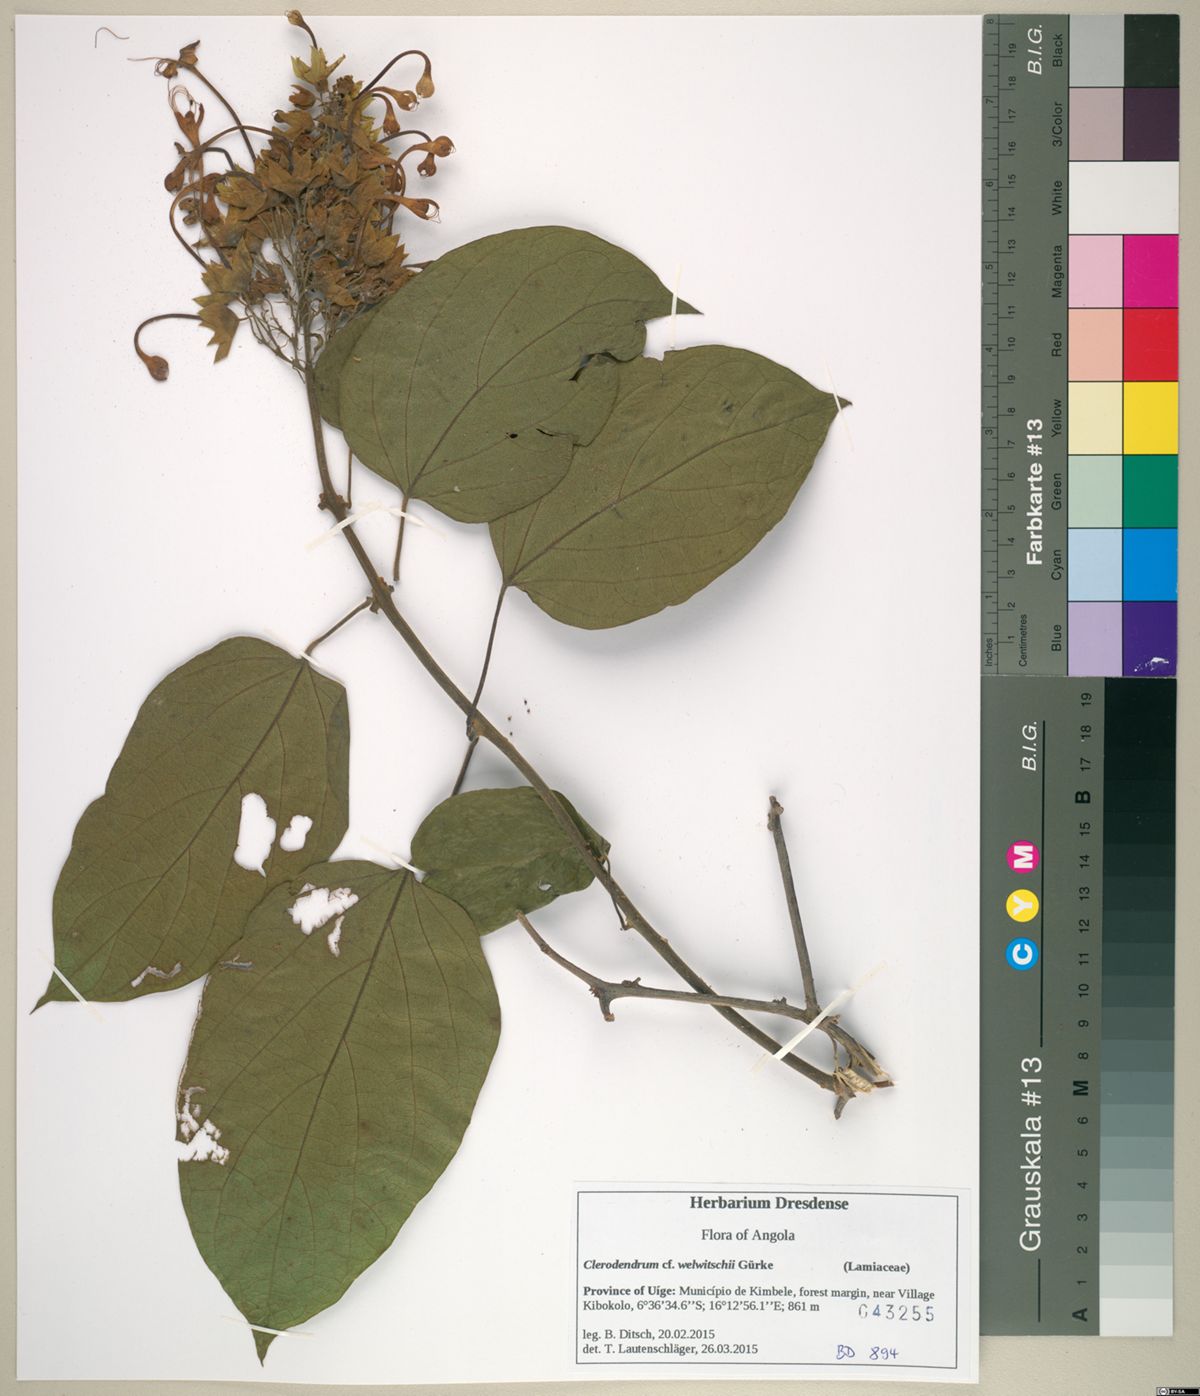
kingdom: Plantae
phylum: Tracheophyta
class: Magnoliopsida
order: Lamiales
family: Lamiaceae
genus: Clerodendrum
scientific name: Clerodendrum welwitschii
